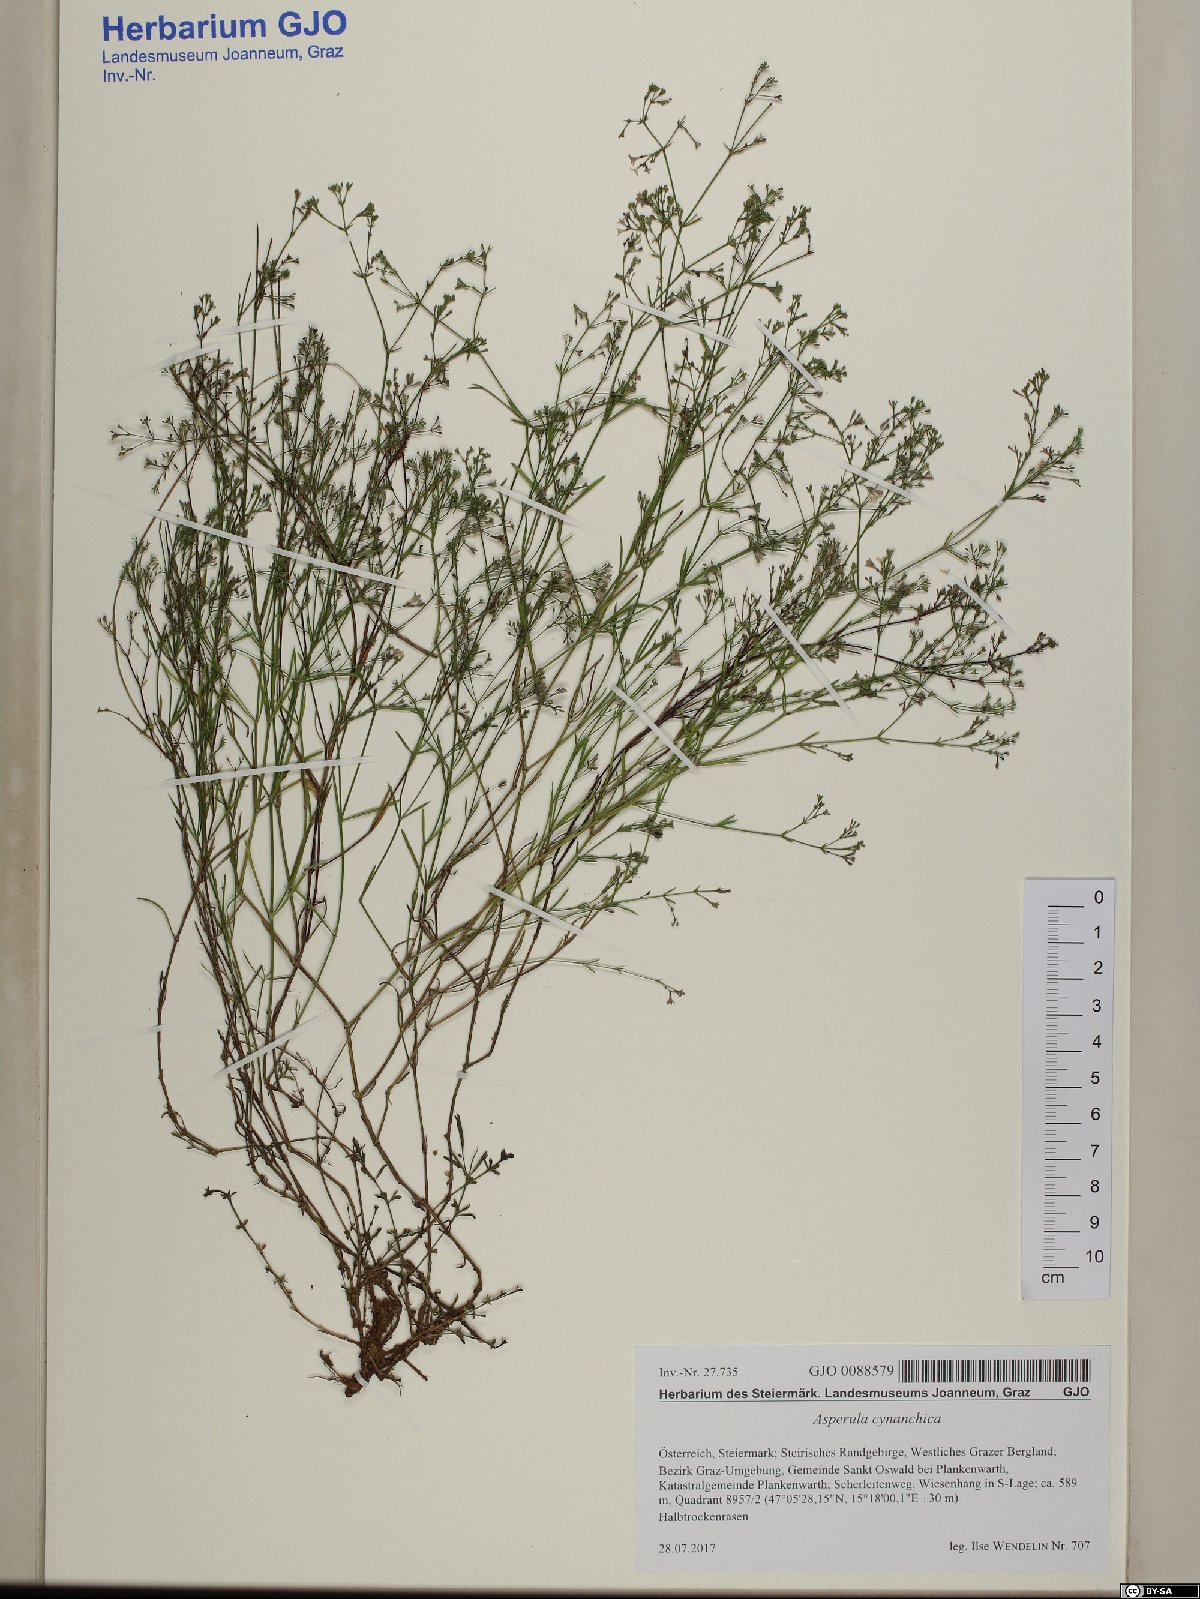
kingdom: Plantae
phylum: Tracheophyta
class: Magnoliopsida
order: Gentianales
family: Rubiaceae
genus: Cynanchica
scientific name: Cynanchica pyrenaica
